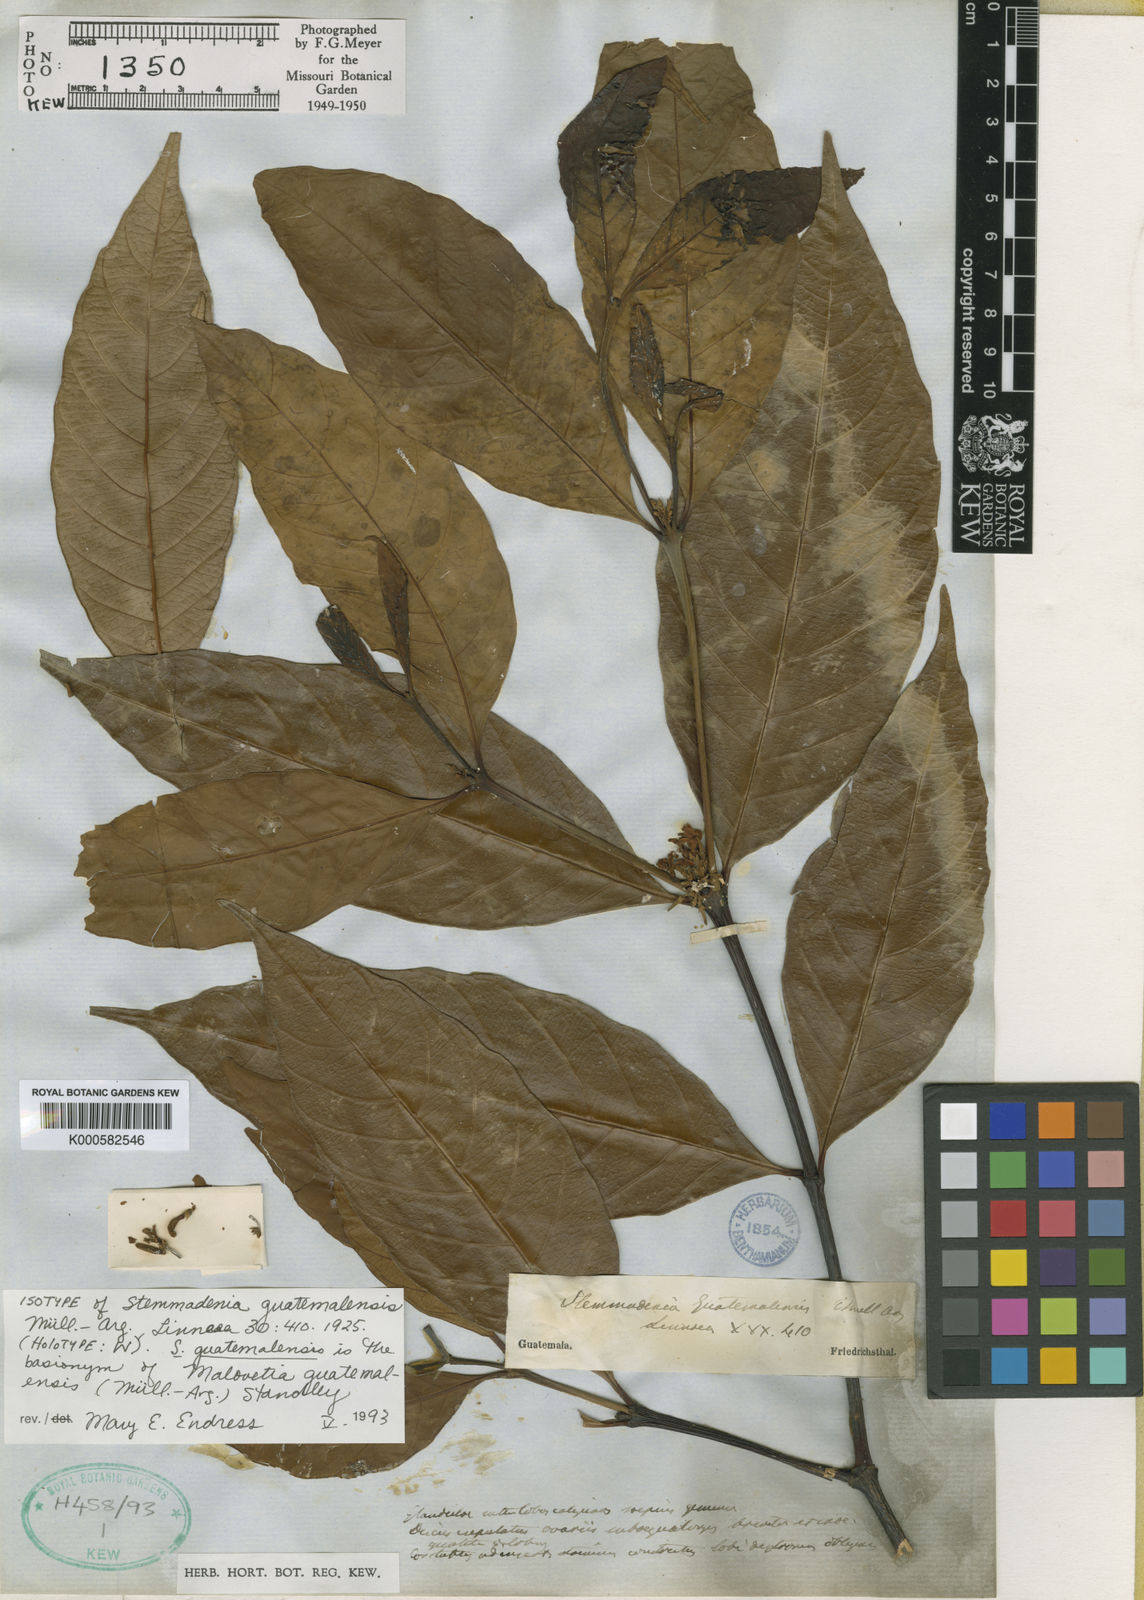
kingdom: Plantae
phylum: Tracheophyta
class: Magnoliopsida
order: Gentianales
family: Apocynaceae
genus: Malouetia
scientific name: Malouetia
